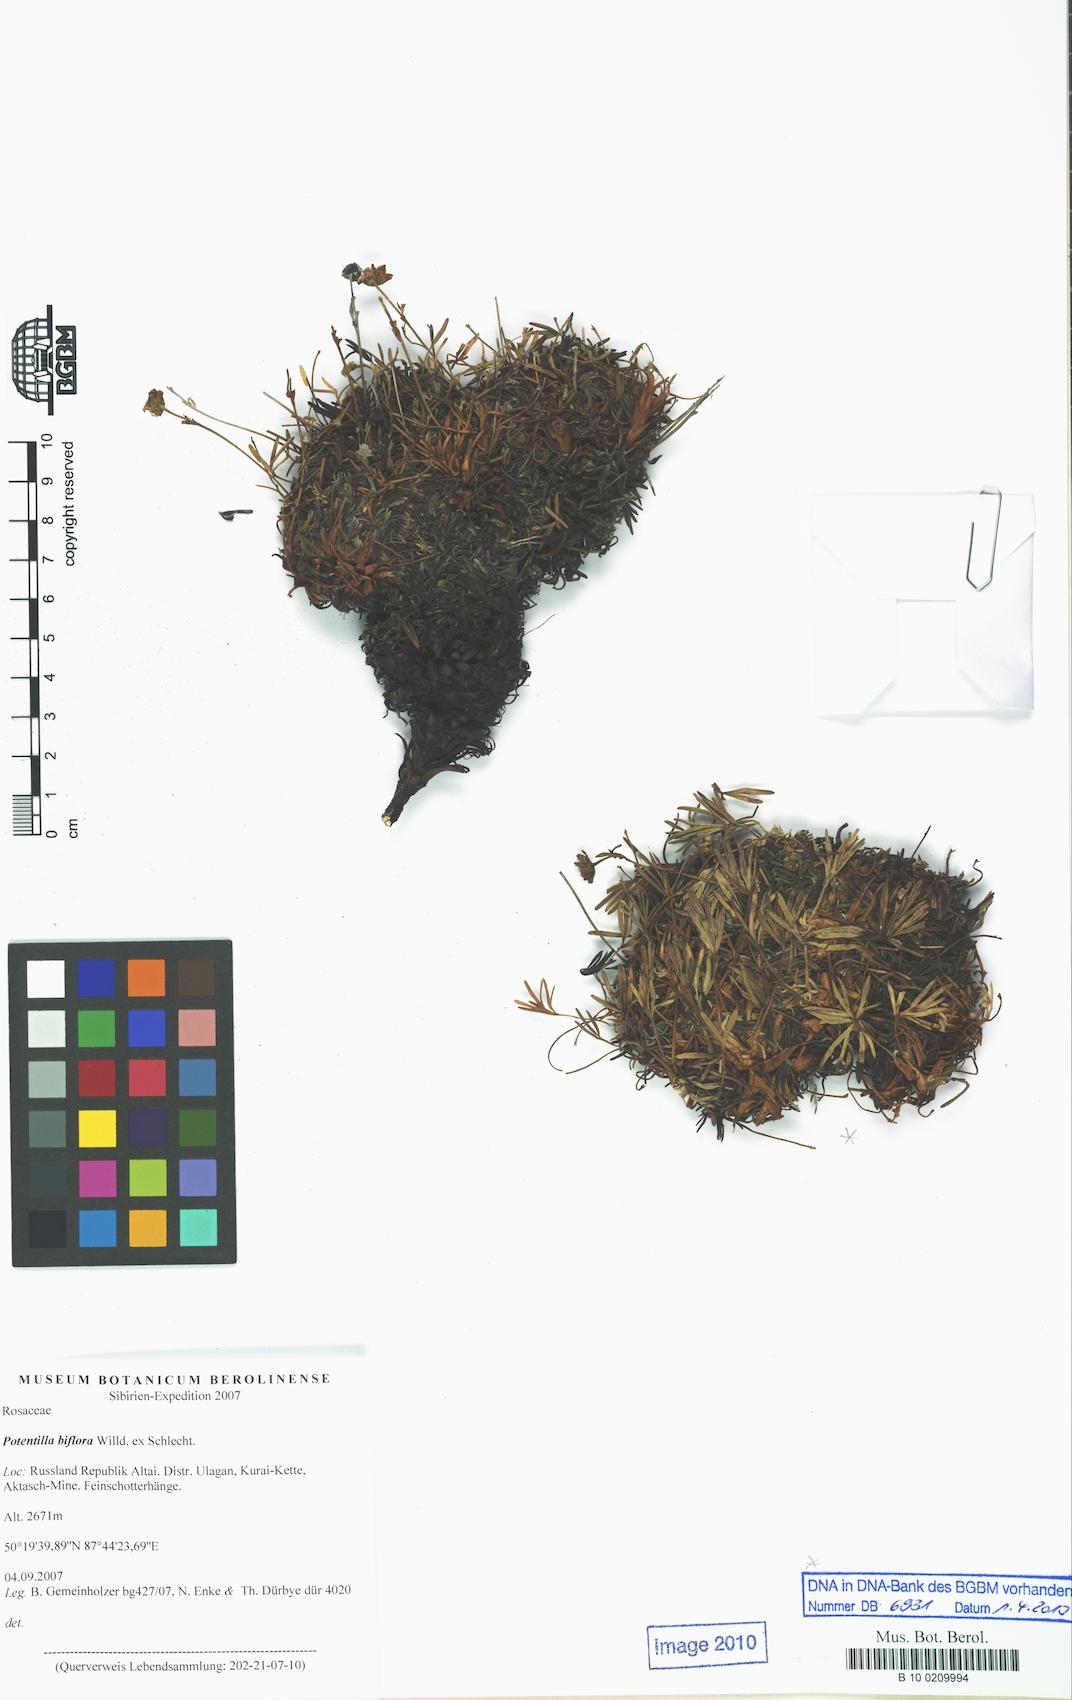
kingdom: Plantae
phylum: Tracheophyta
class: Magnoliopsida
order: Rosales
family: Rosaceae
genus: Potentilla
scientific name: Potentilla biflora
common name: Two-flowered cinquefoil
